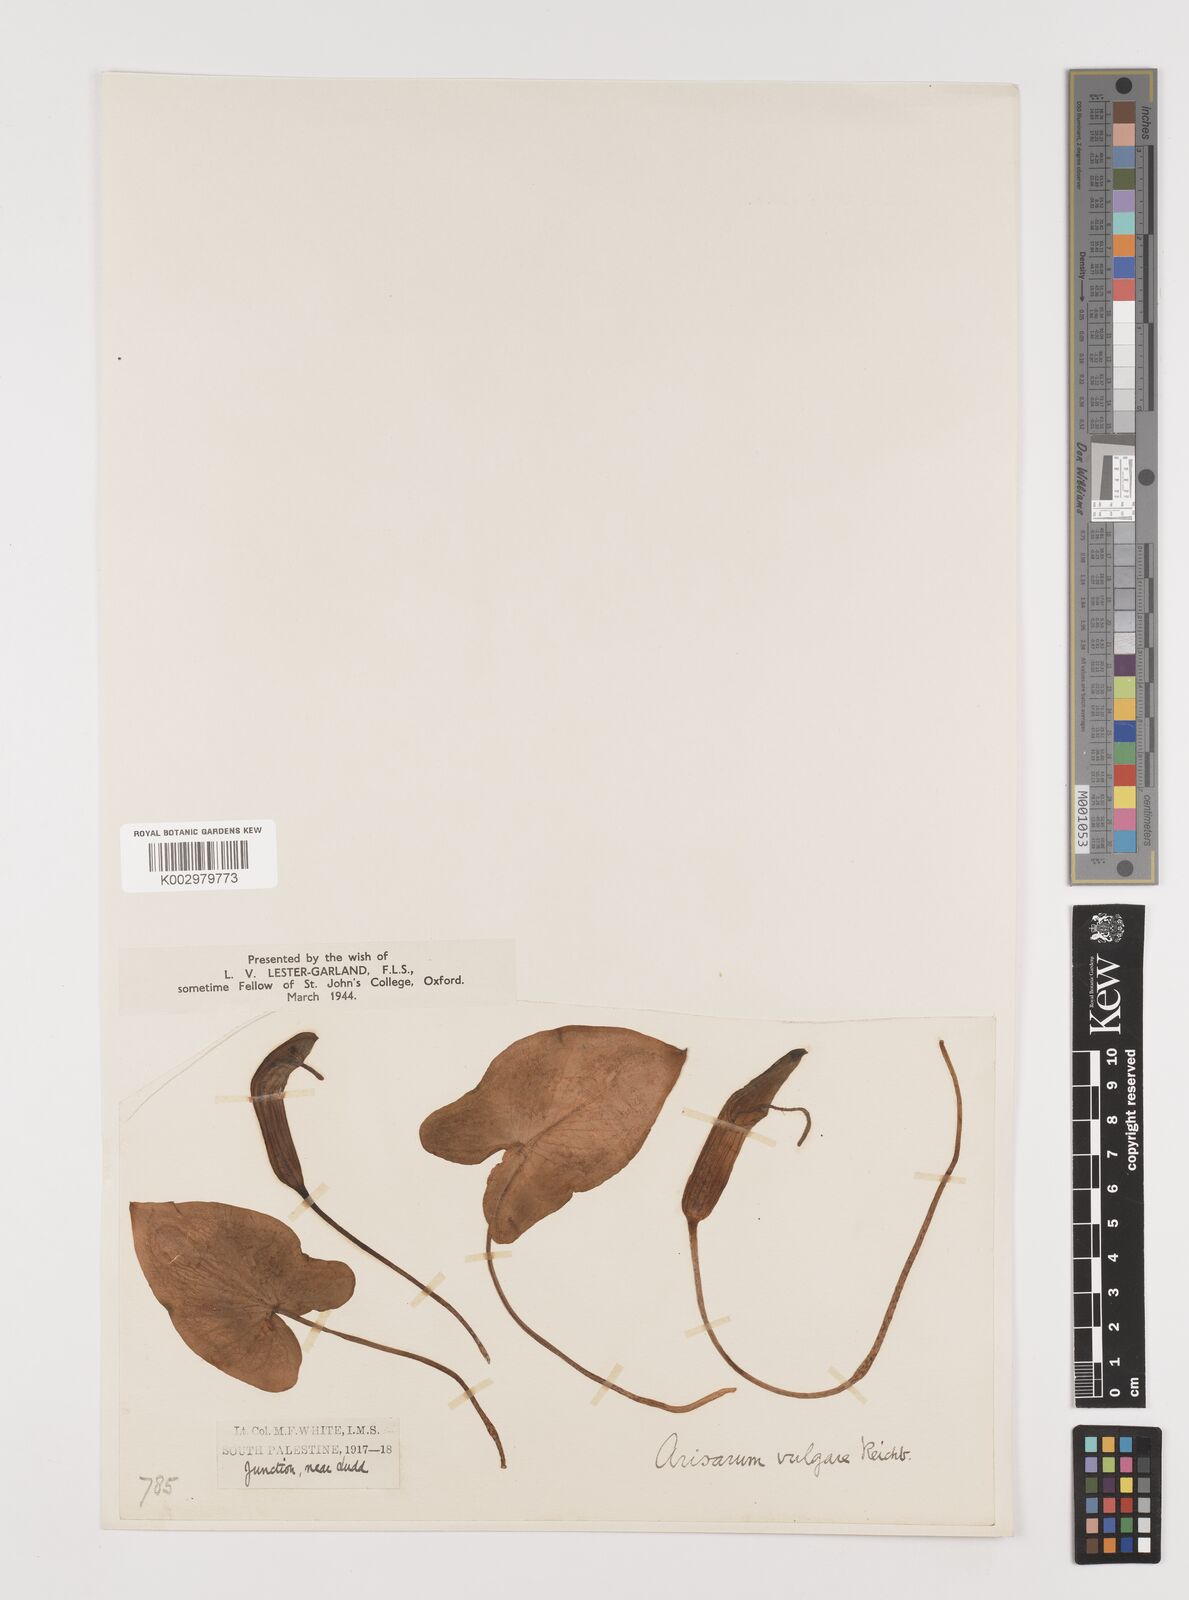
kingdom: Plantae
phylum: Tracheophyta
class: Liliopsida
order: Alismatales
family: Araceae
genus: Arisarum
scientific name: Arisarum vulgare
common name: Common arisarum
